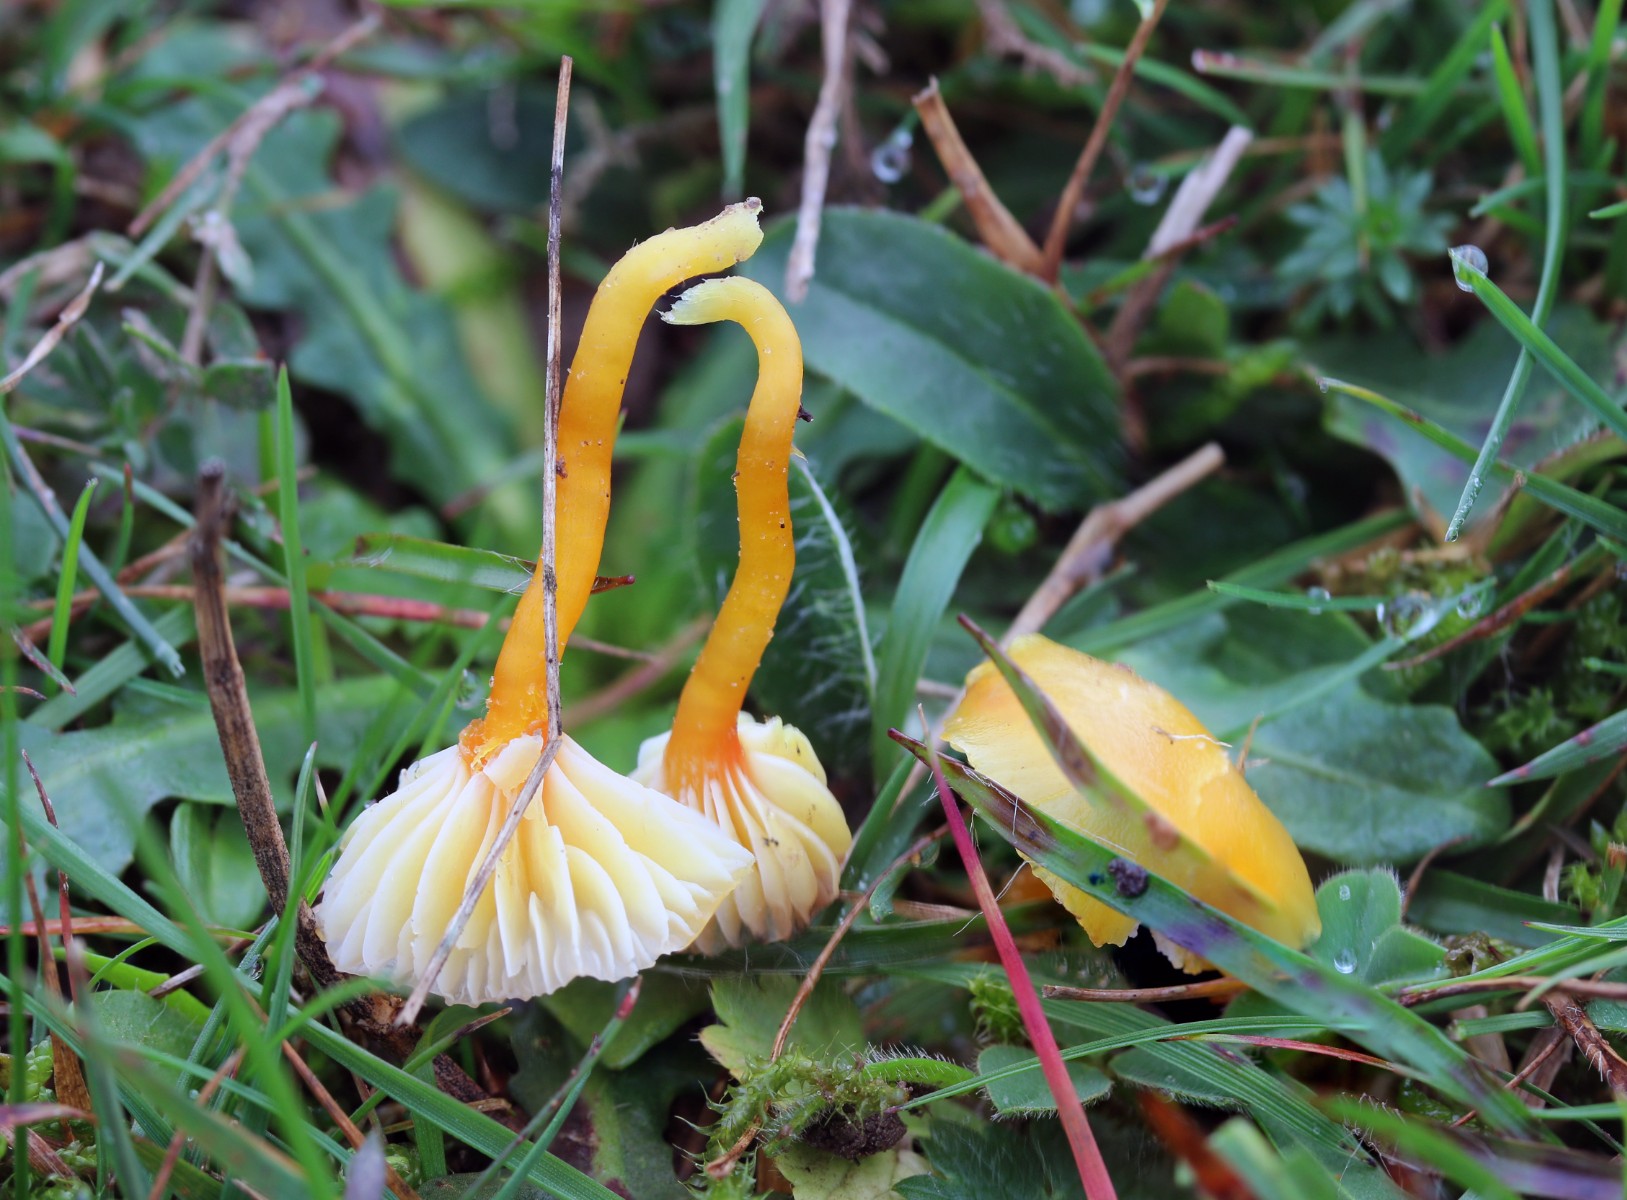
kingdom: Fungi
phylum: Basidiomycota
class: Agaricomycetes
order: Agaricales
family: Hygrophoraceae
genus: Hygrocybe
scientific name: Hygrocybe insipida
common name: liden vokshat
